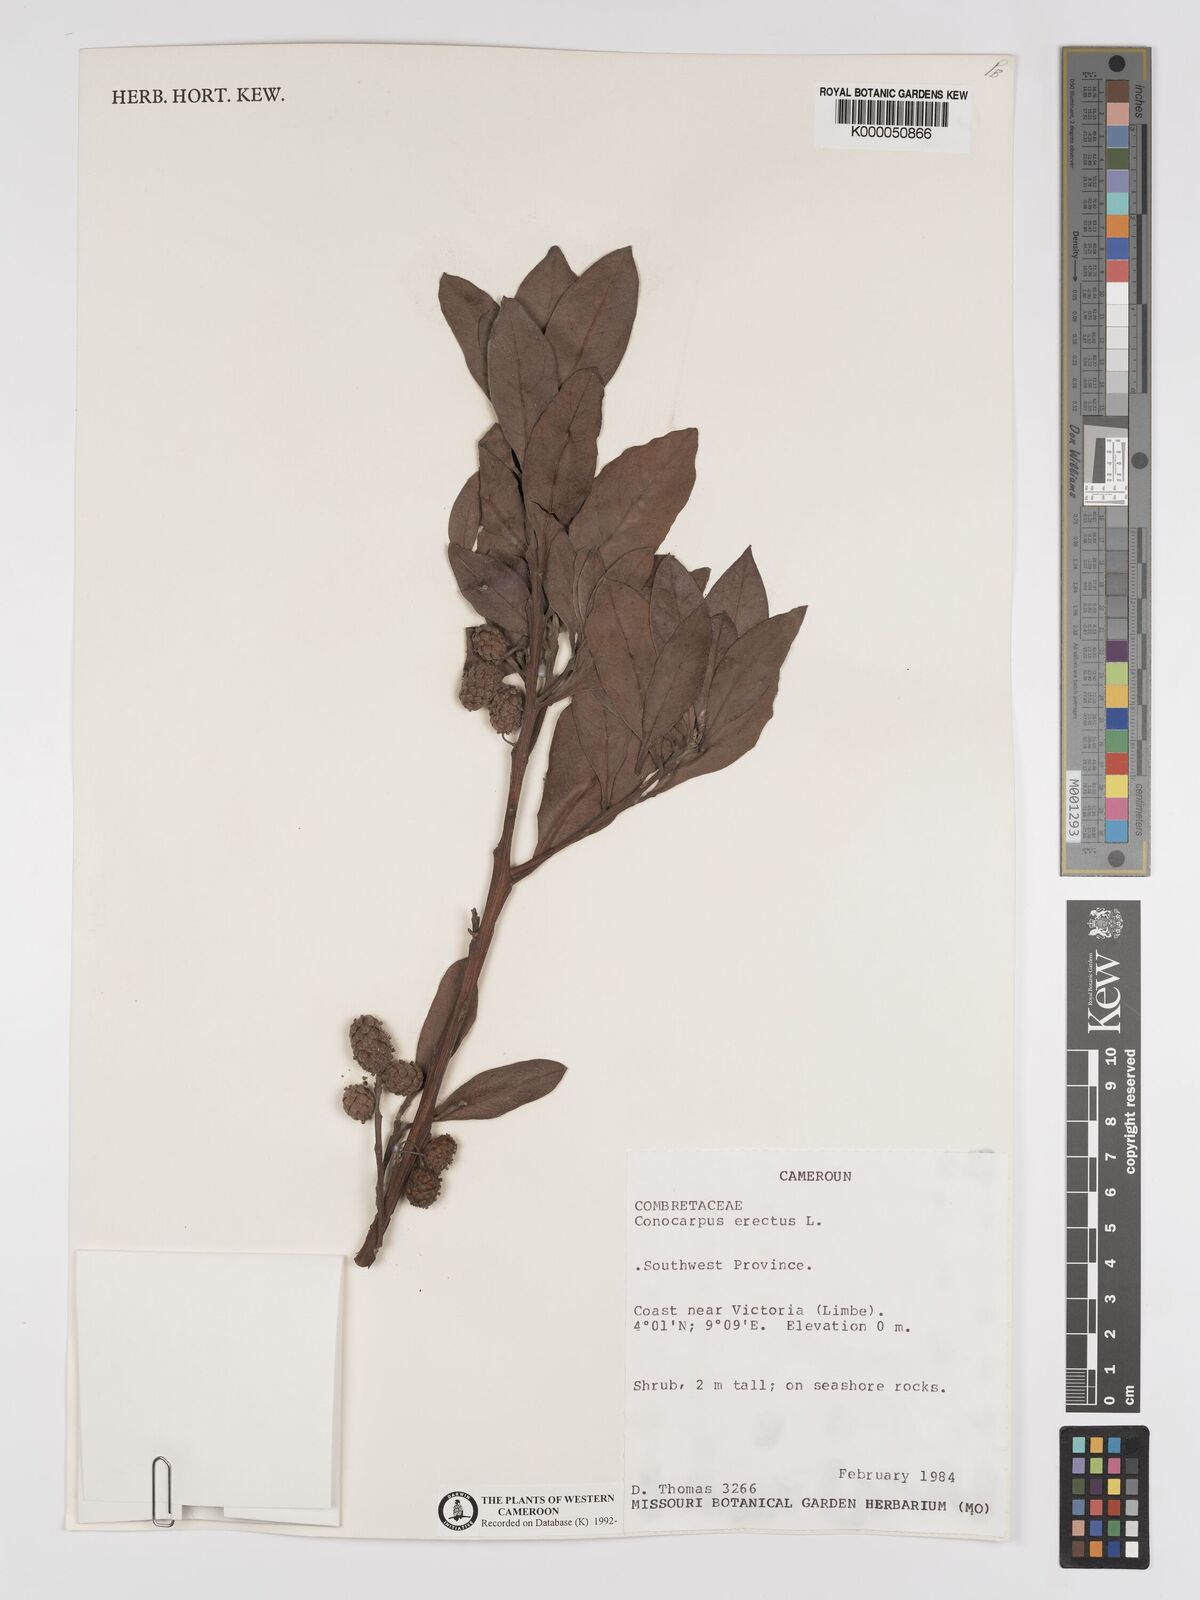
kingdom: Plantae
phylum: Tracheophyta
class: Magnoliopsida
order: Myrtales
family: Combretaceae
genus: Conocarpus
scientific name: Conocarpus erectus
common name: Button mangrove
